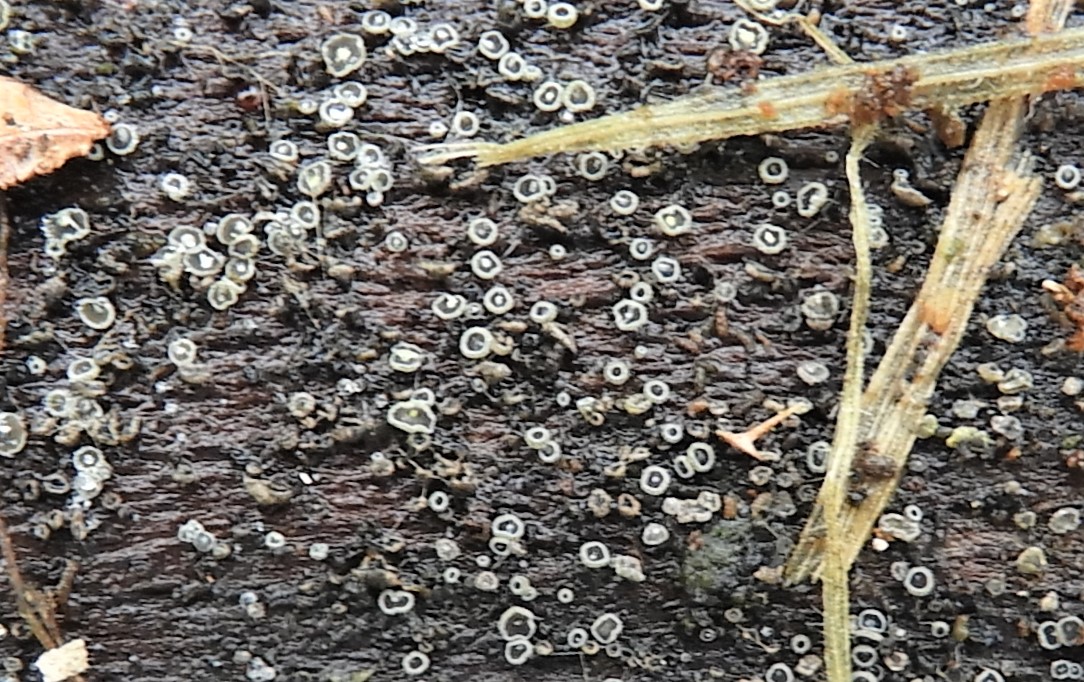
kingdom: Fungi
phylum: Ascomycota
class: Leotiomycetes
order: Helotiales
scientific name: Helotiales
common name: stilkskiveordenen
